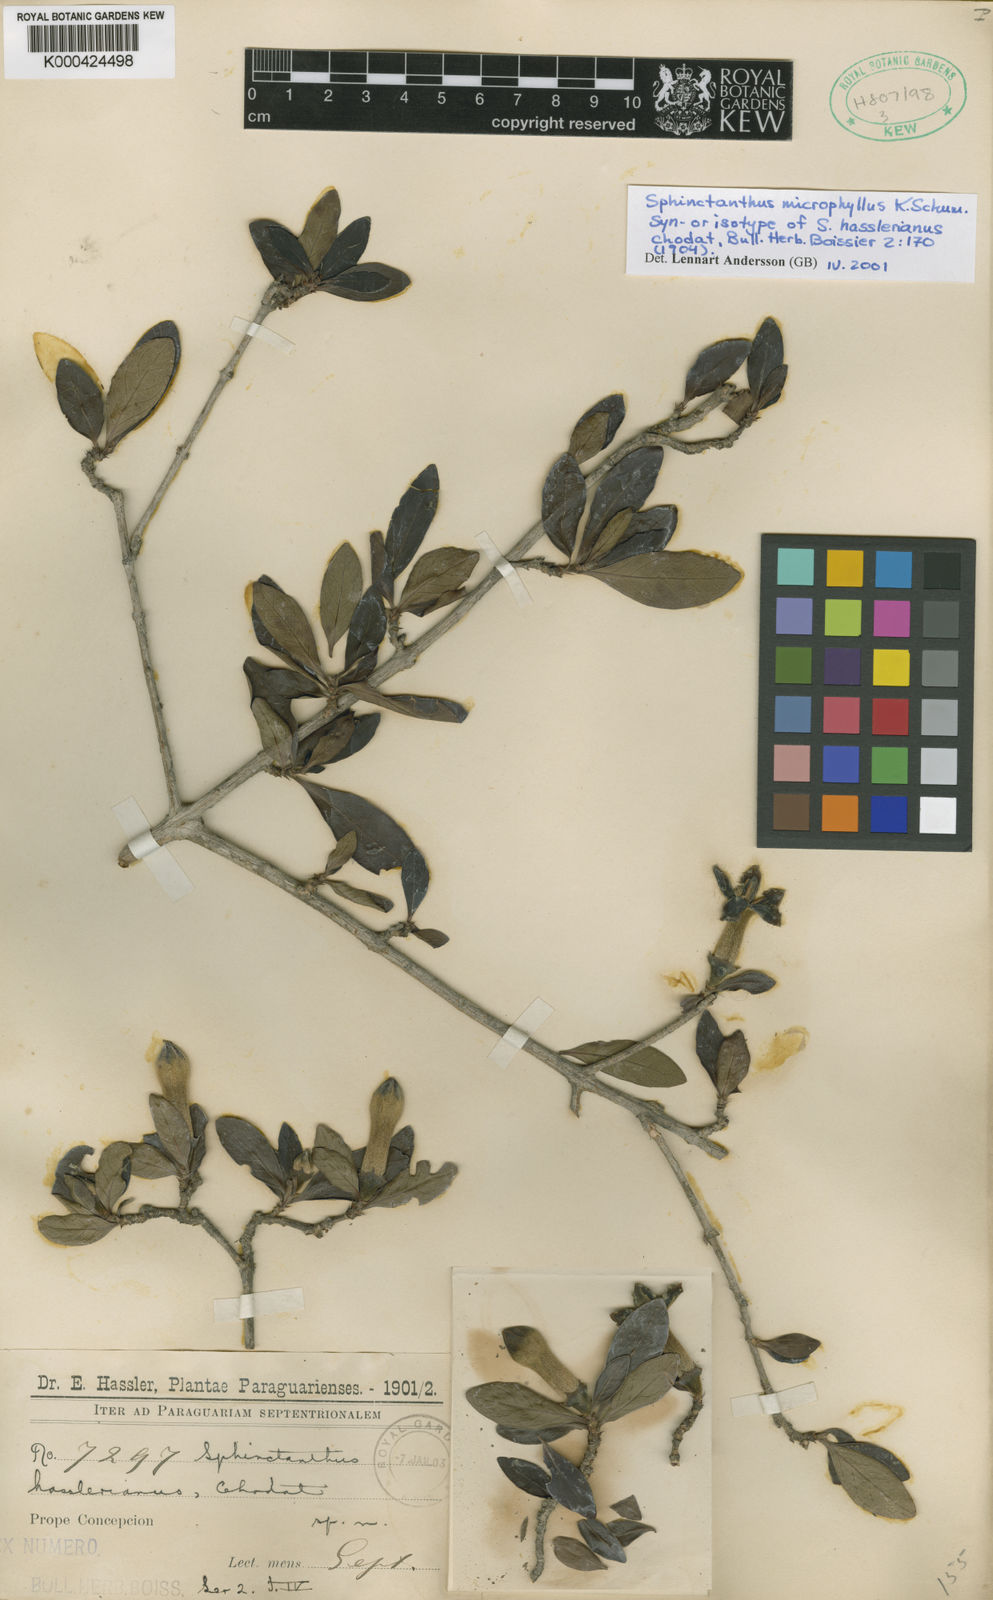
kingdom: Plantae
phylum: Tracheophyta
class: Magnoliopsida
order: Gentianales
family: Rubiaceae
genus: Sphinctanthus
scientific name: Sphinctanthus microphyllus
